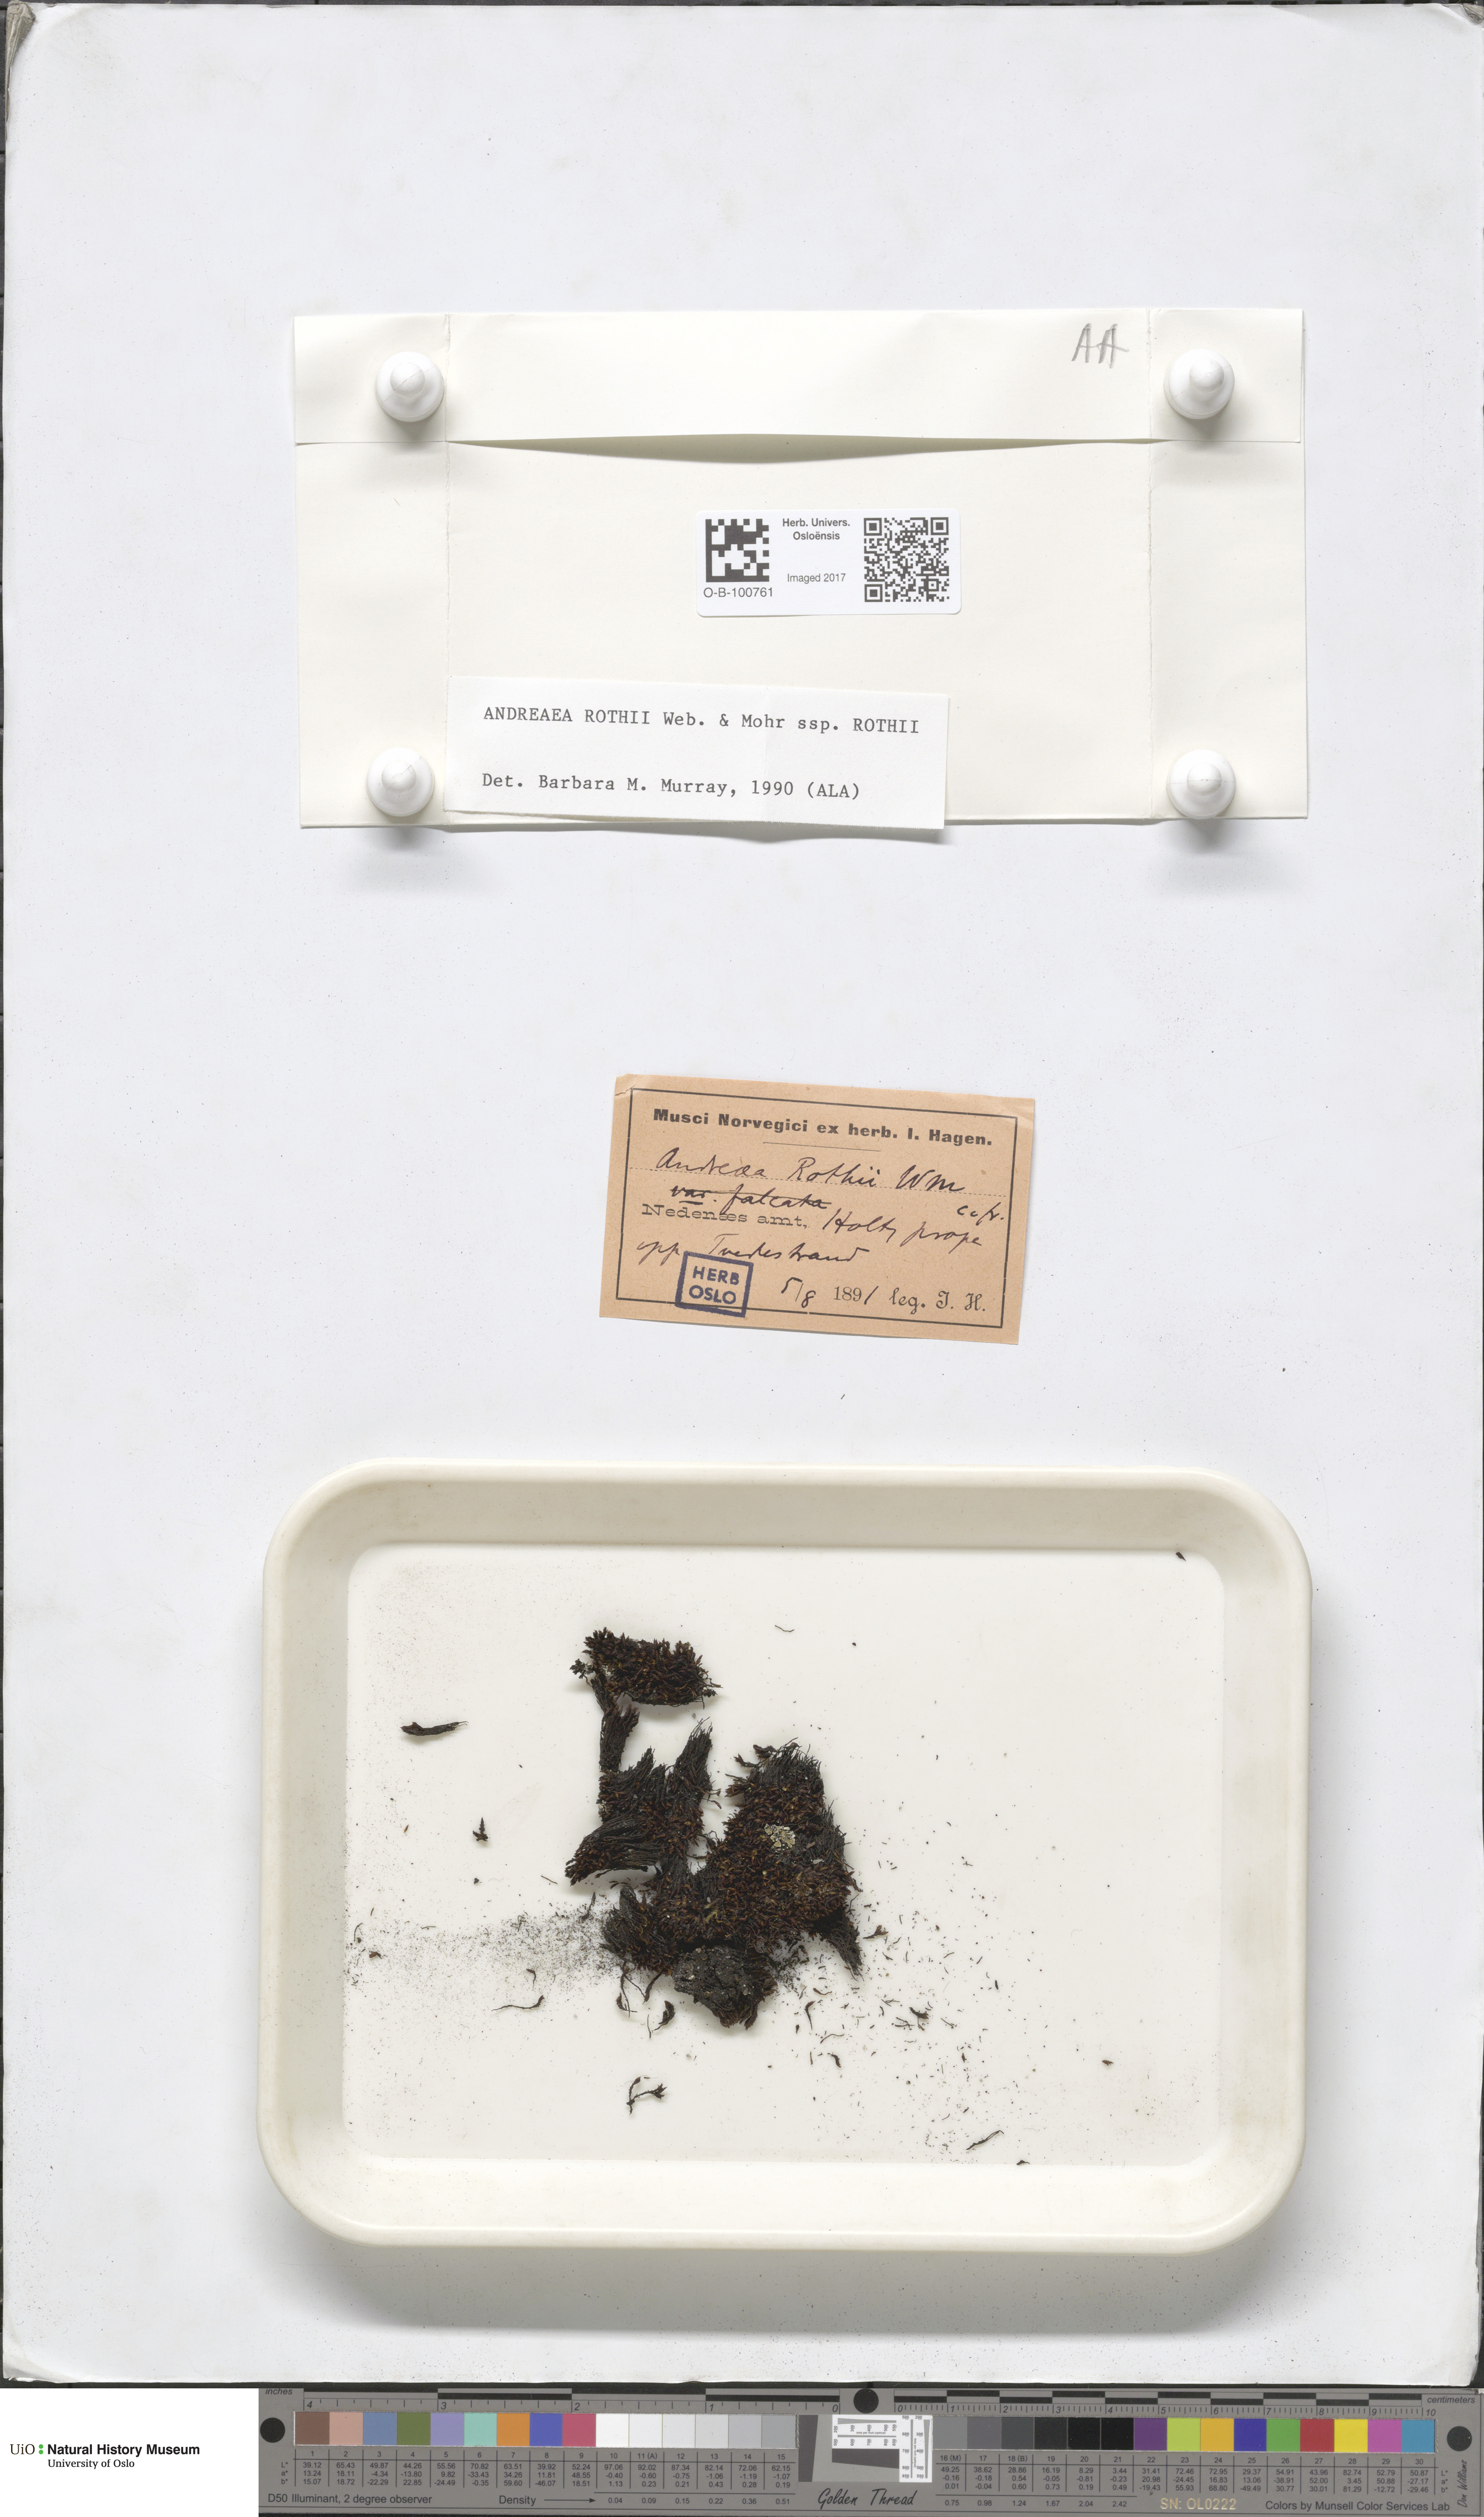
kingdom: Plantae
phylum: Bryophyta
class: Andreaeopsida
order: Andreaeales
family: Andreaeaceae
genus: Andreaea
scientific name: Andreaea rothii
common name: Dusky rock moss
